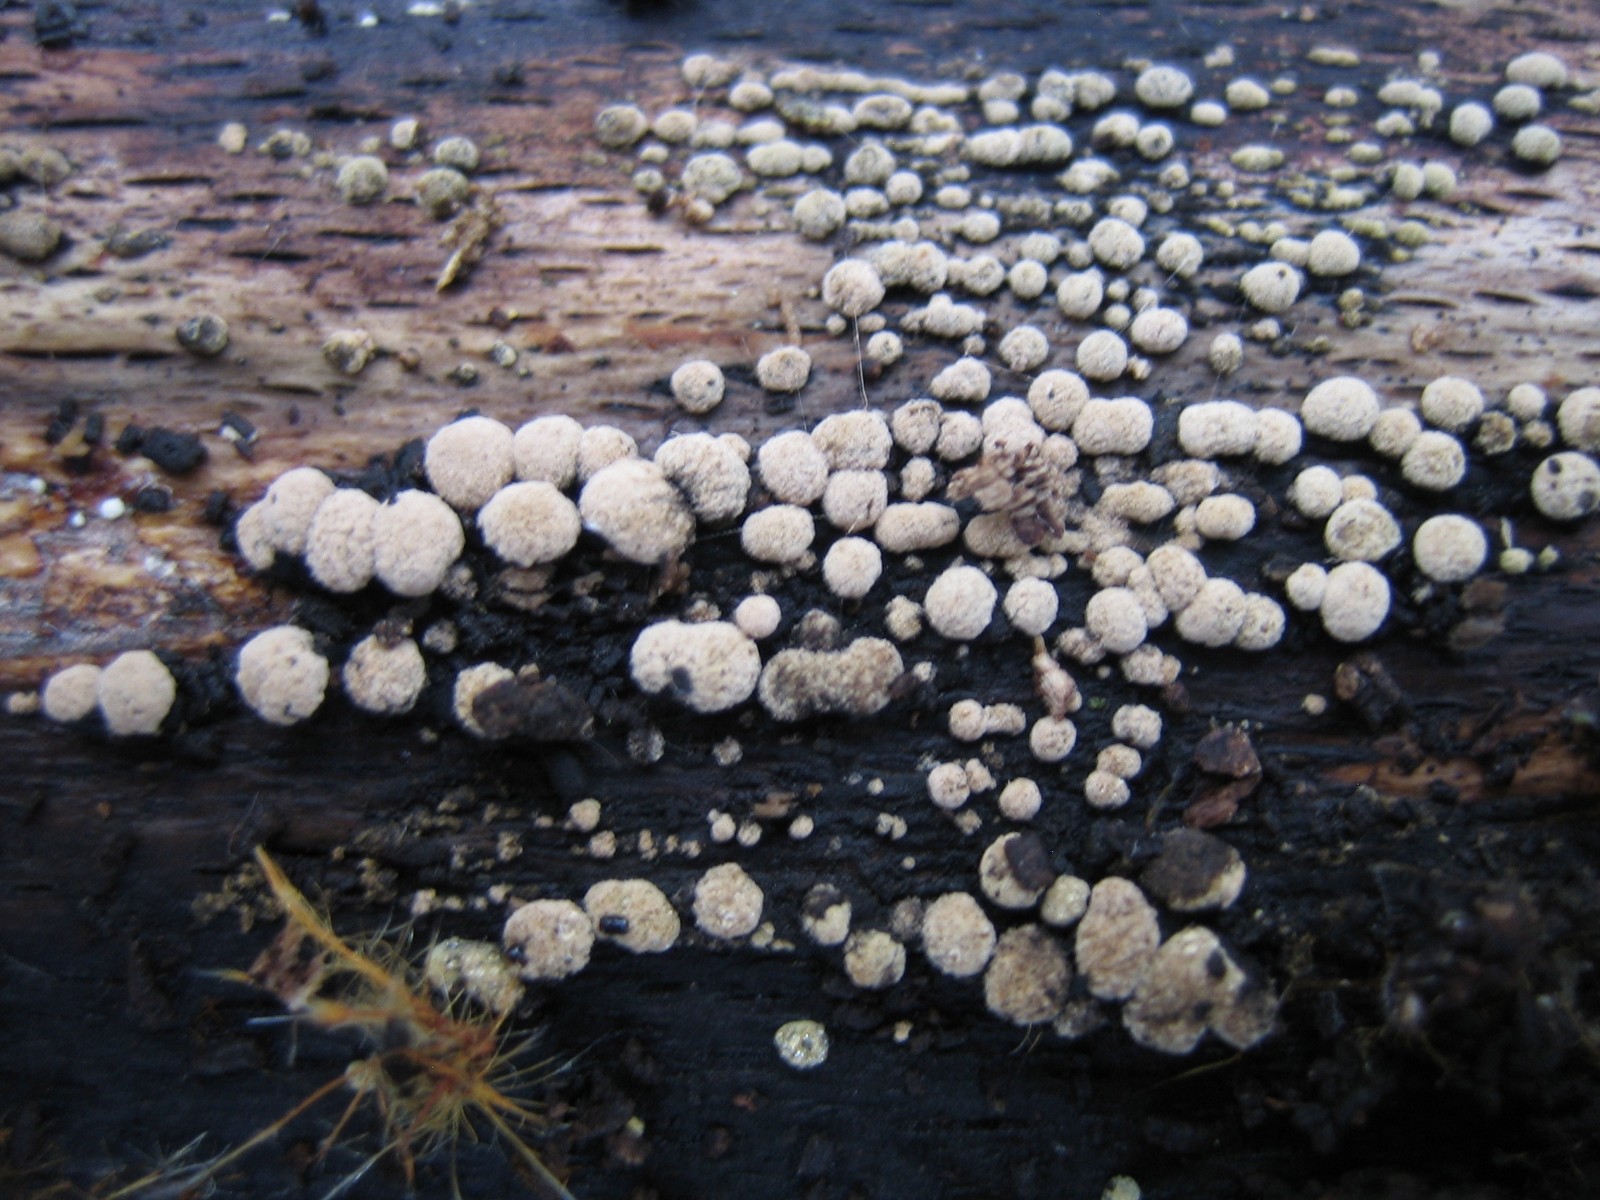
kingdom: Fungi
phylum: Ascomycota
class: Sordariomycetes
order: Xylariales
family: Hypoxylaceae
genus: Hypoxylon
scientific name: Hypoxylon fragiforme
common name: kuljordbær
